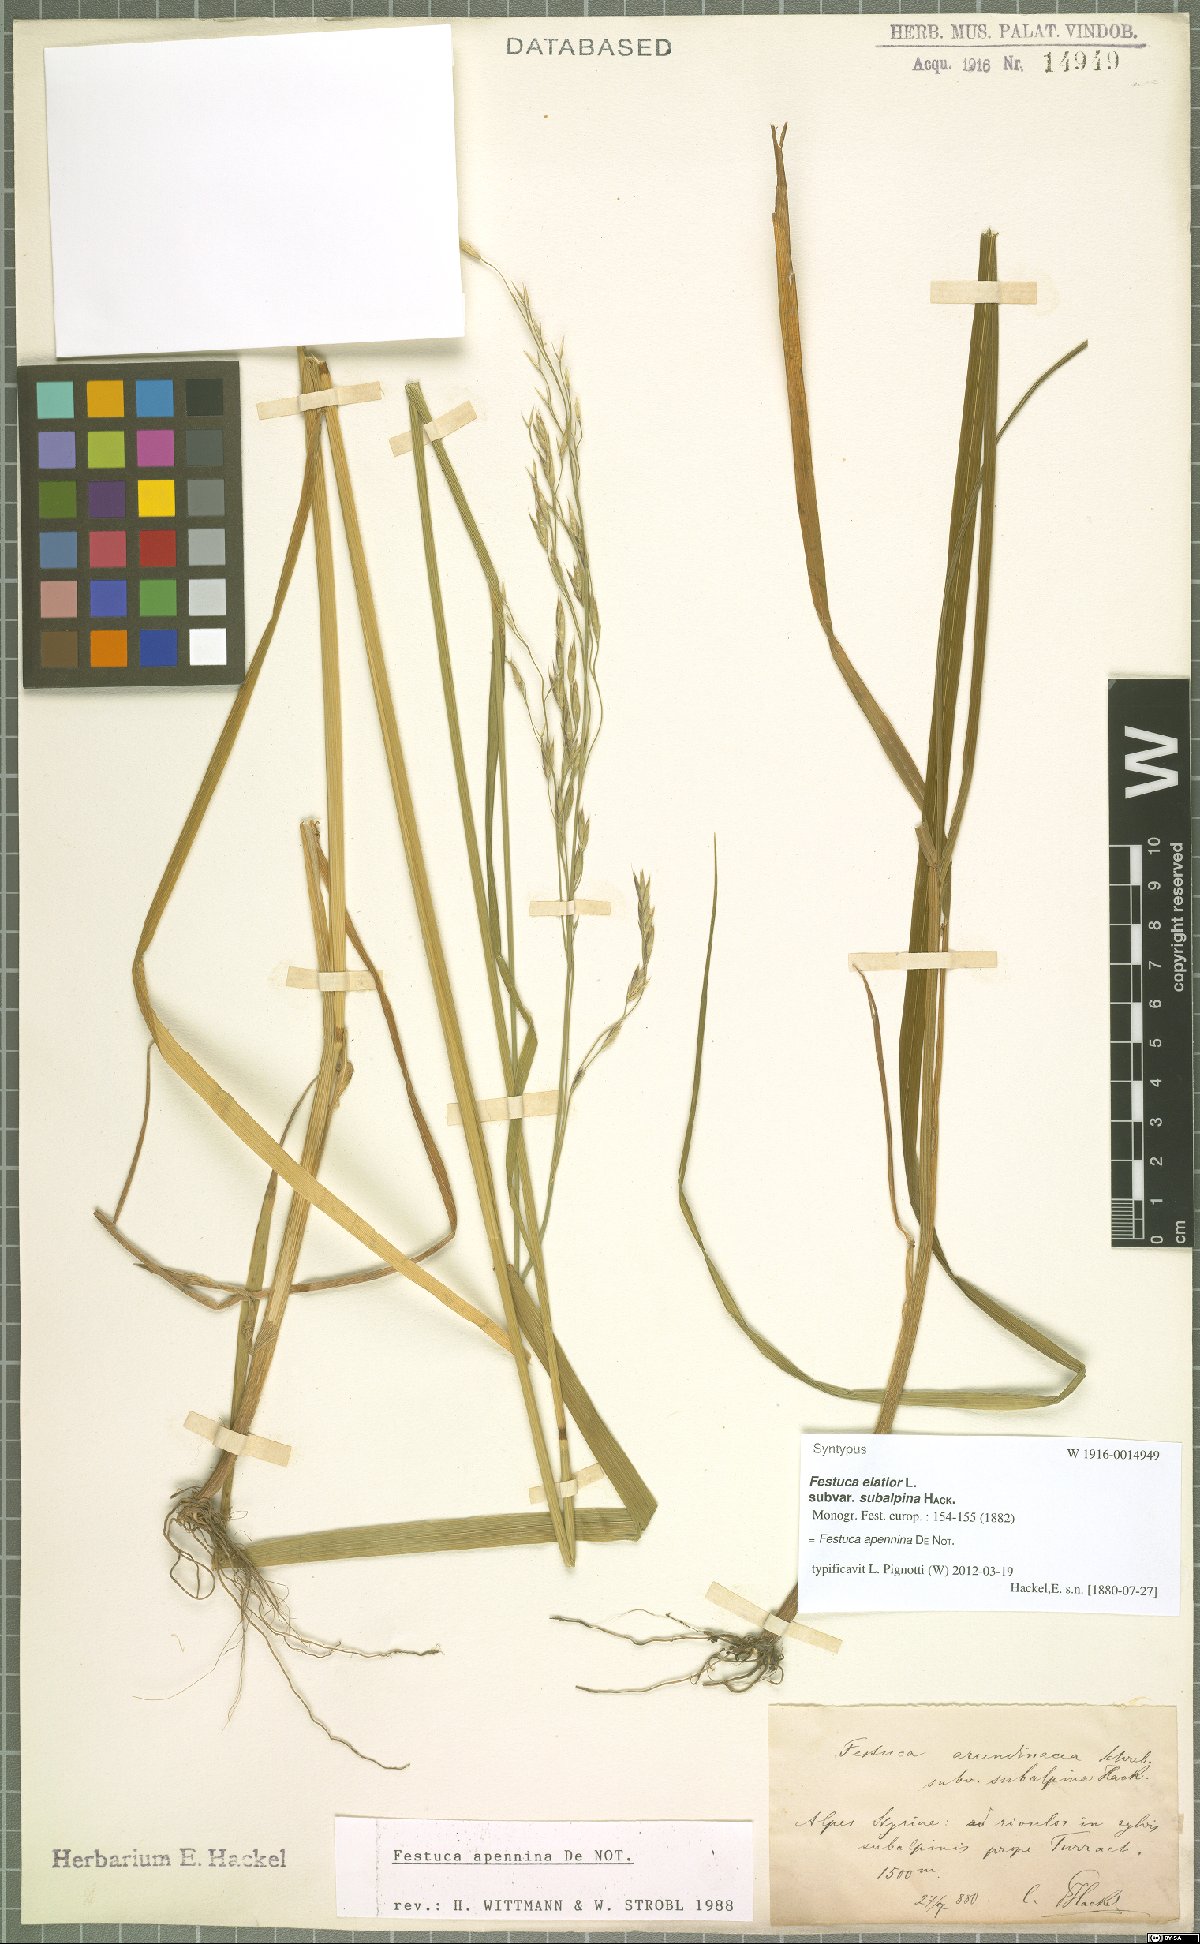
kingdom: Plantae
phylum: Tracheophyta
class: Liliopsida
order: Poales
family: Poaceae
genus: Lolium
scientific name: Lolium apenninum
